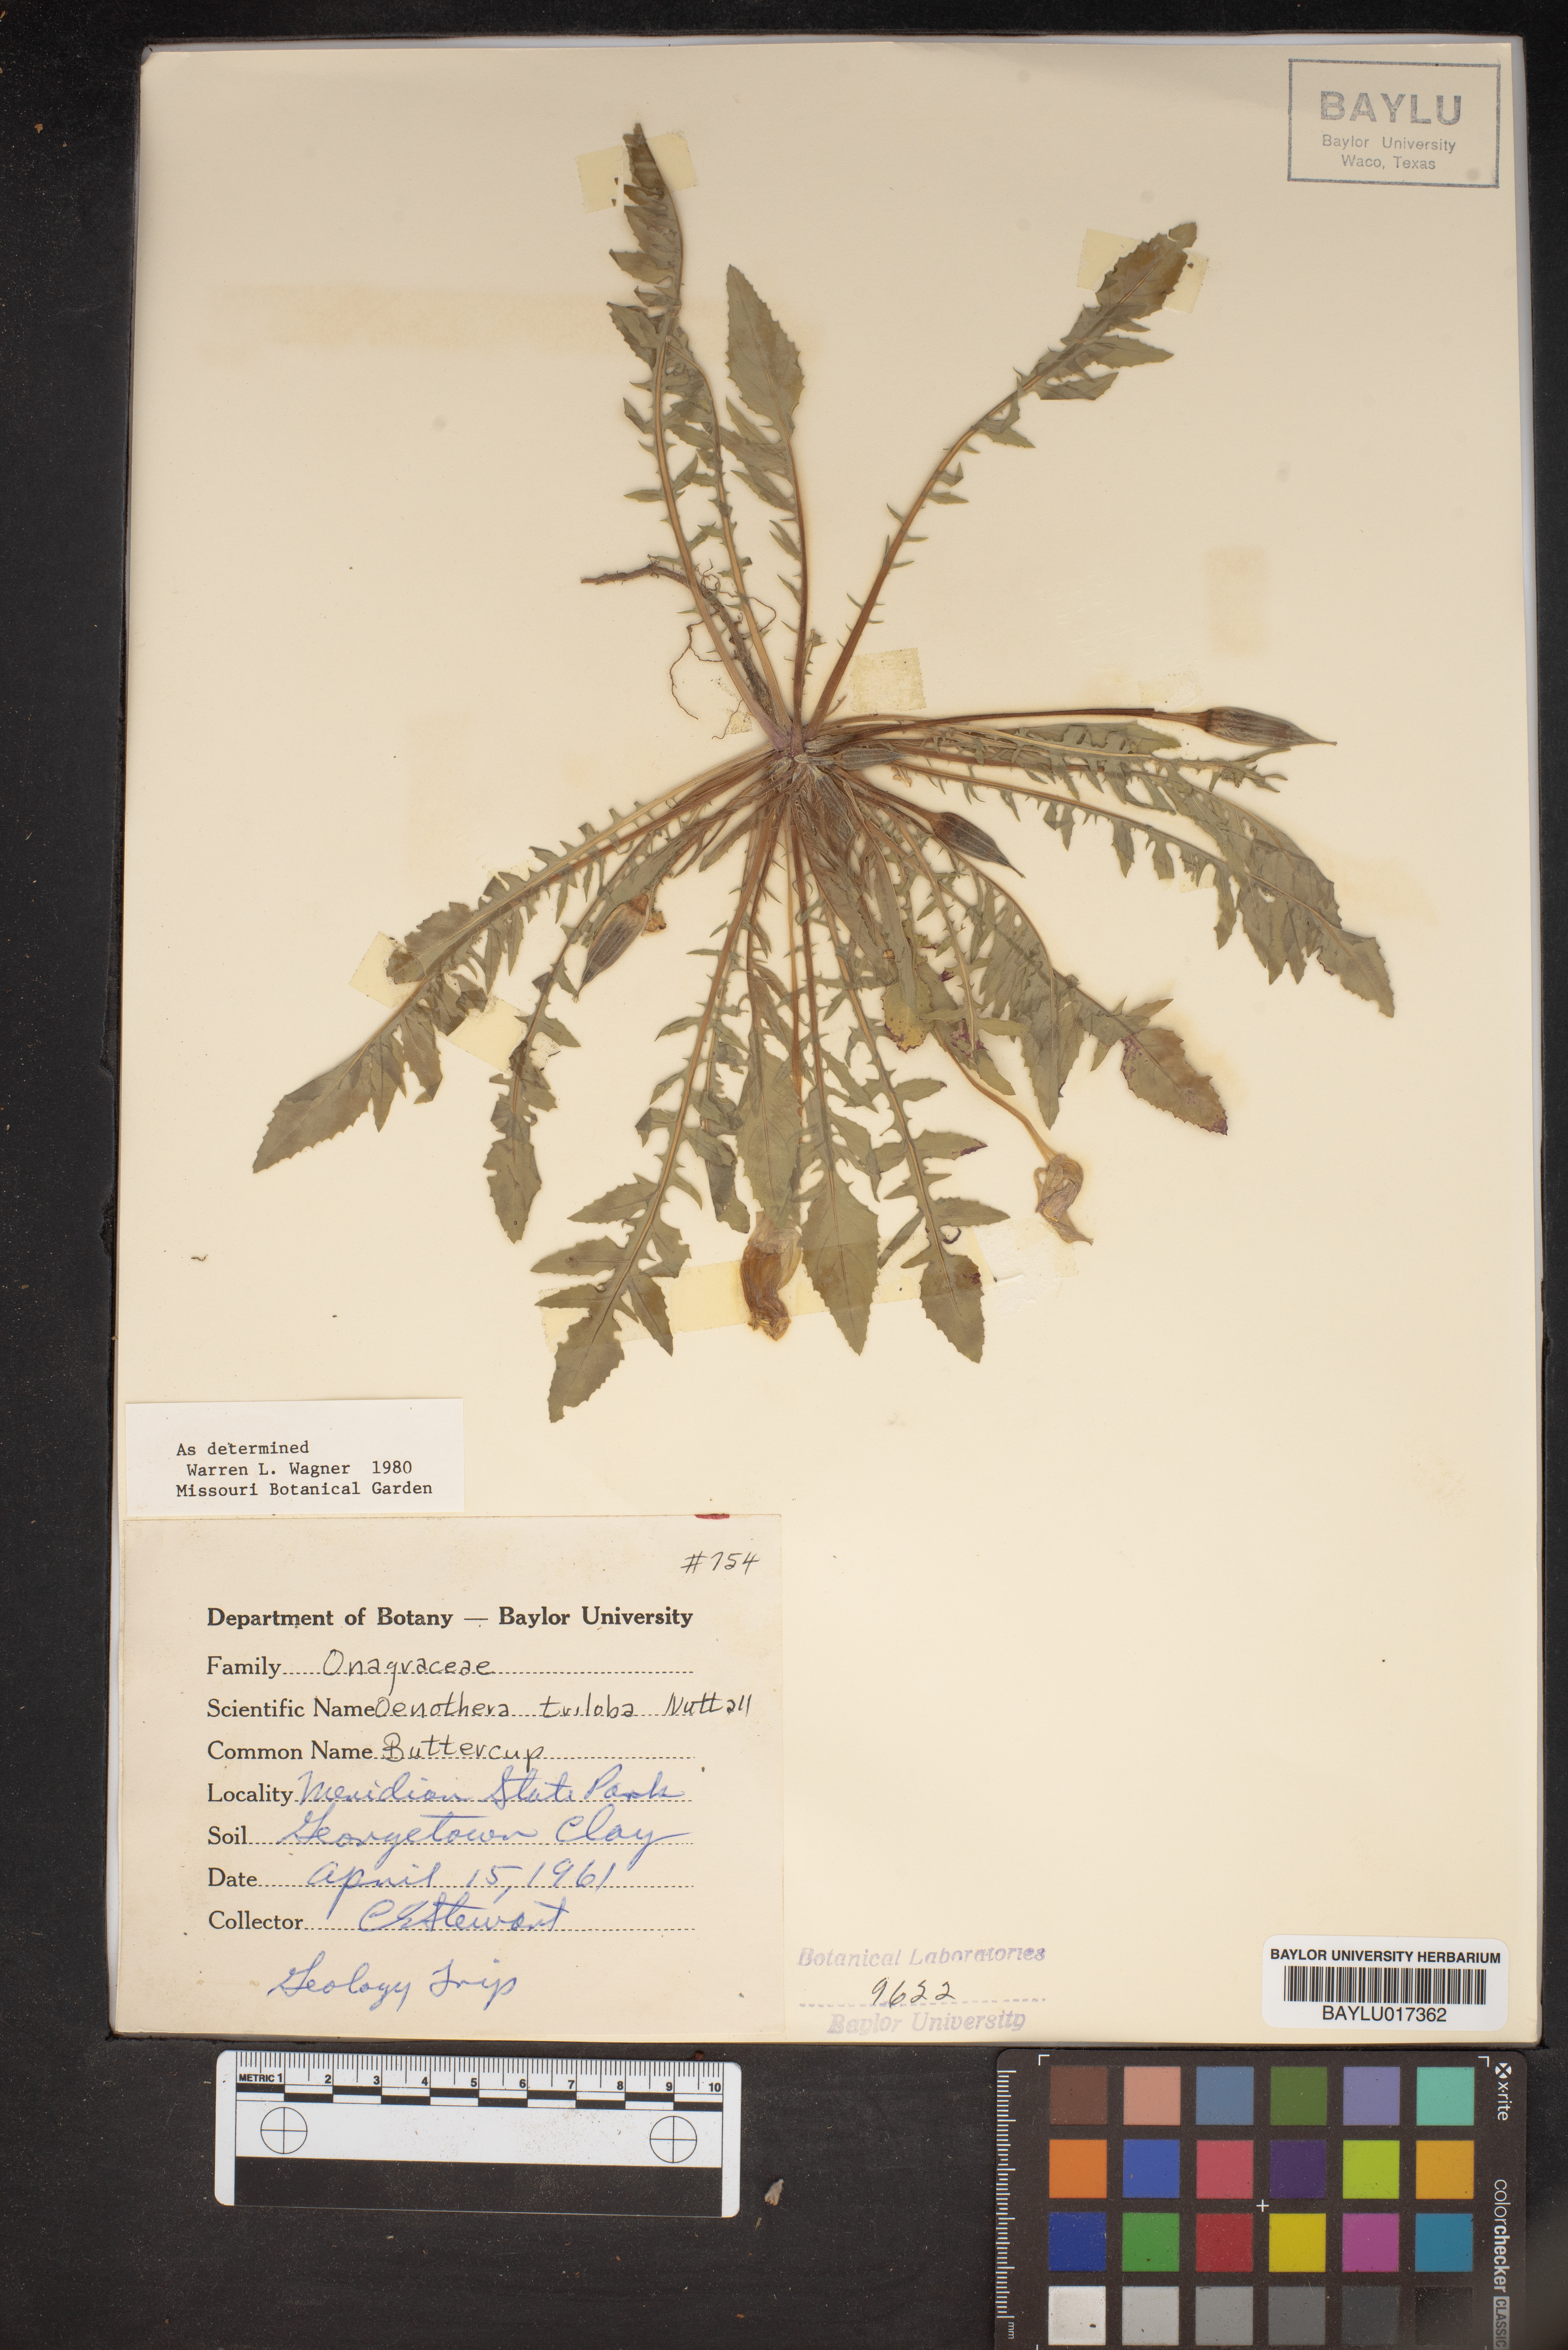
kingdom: Plantae
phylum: Tracheophyta
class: Magnoliopsida
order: Myrtales
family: Onagraceae
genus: Oenothera
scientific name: Oenothera triloba
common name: Sessile evening-primrose
